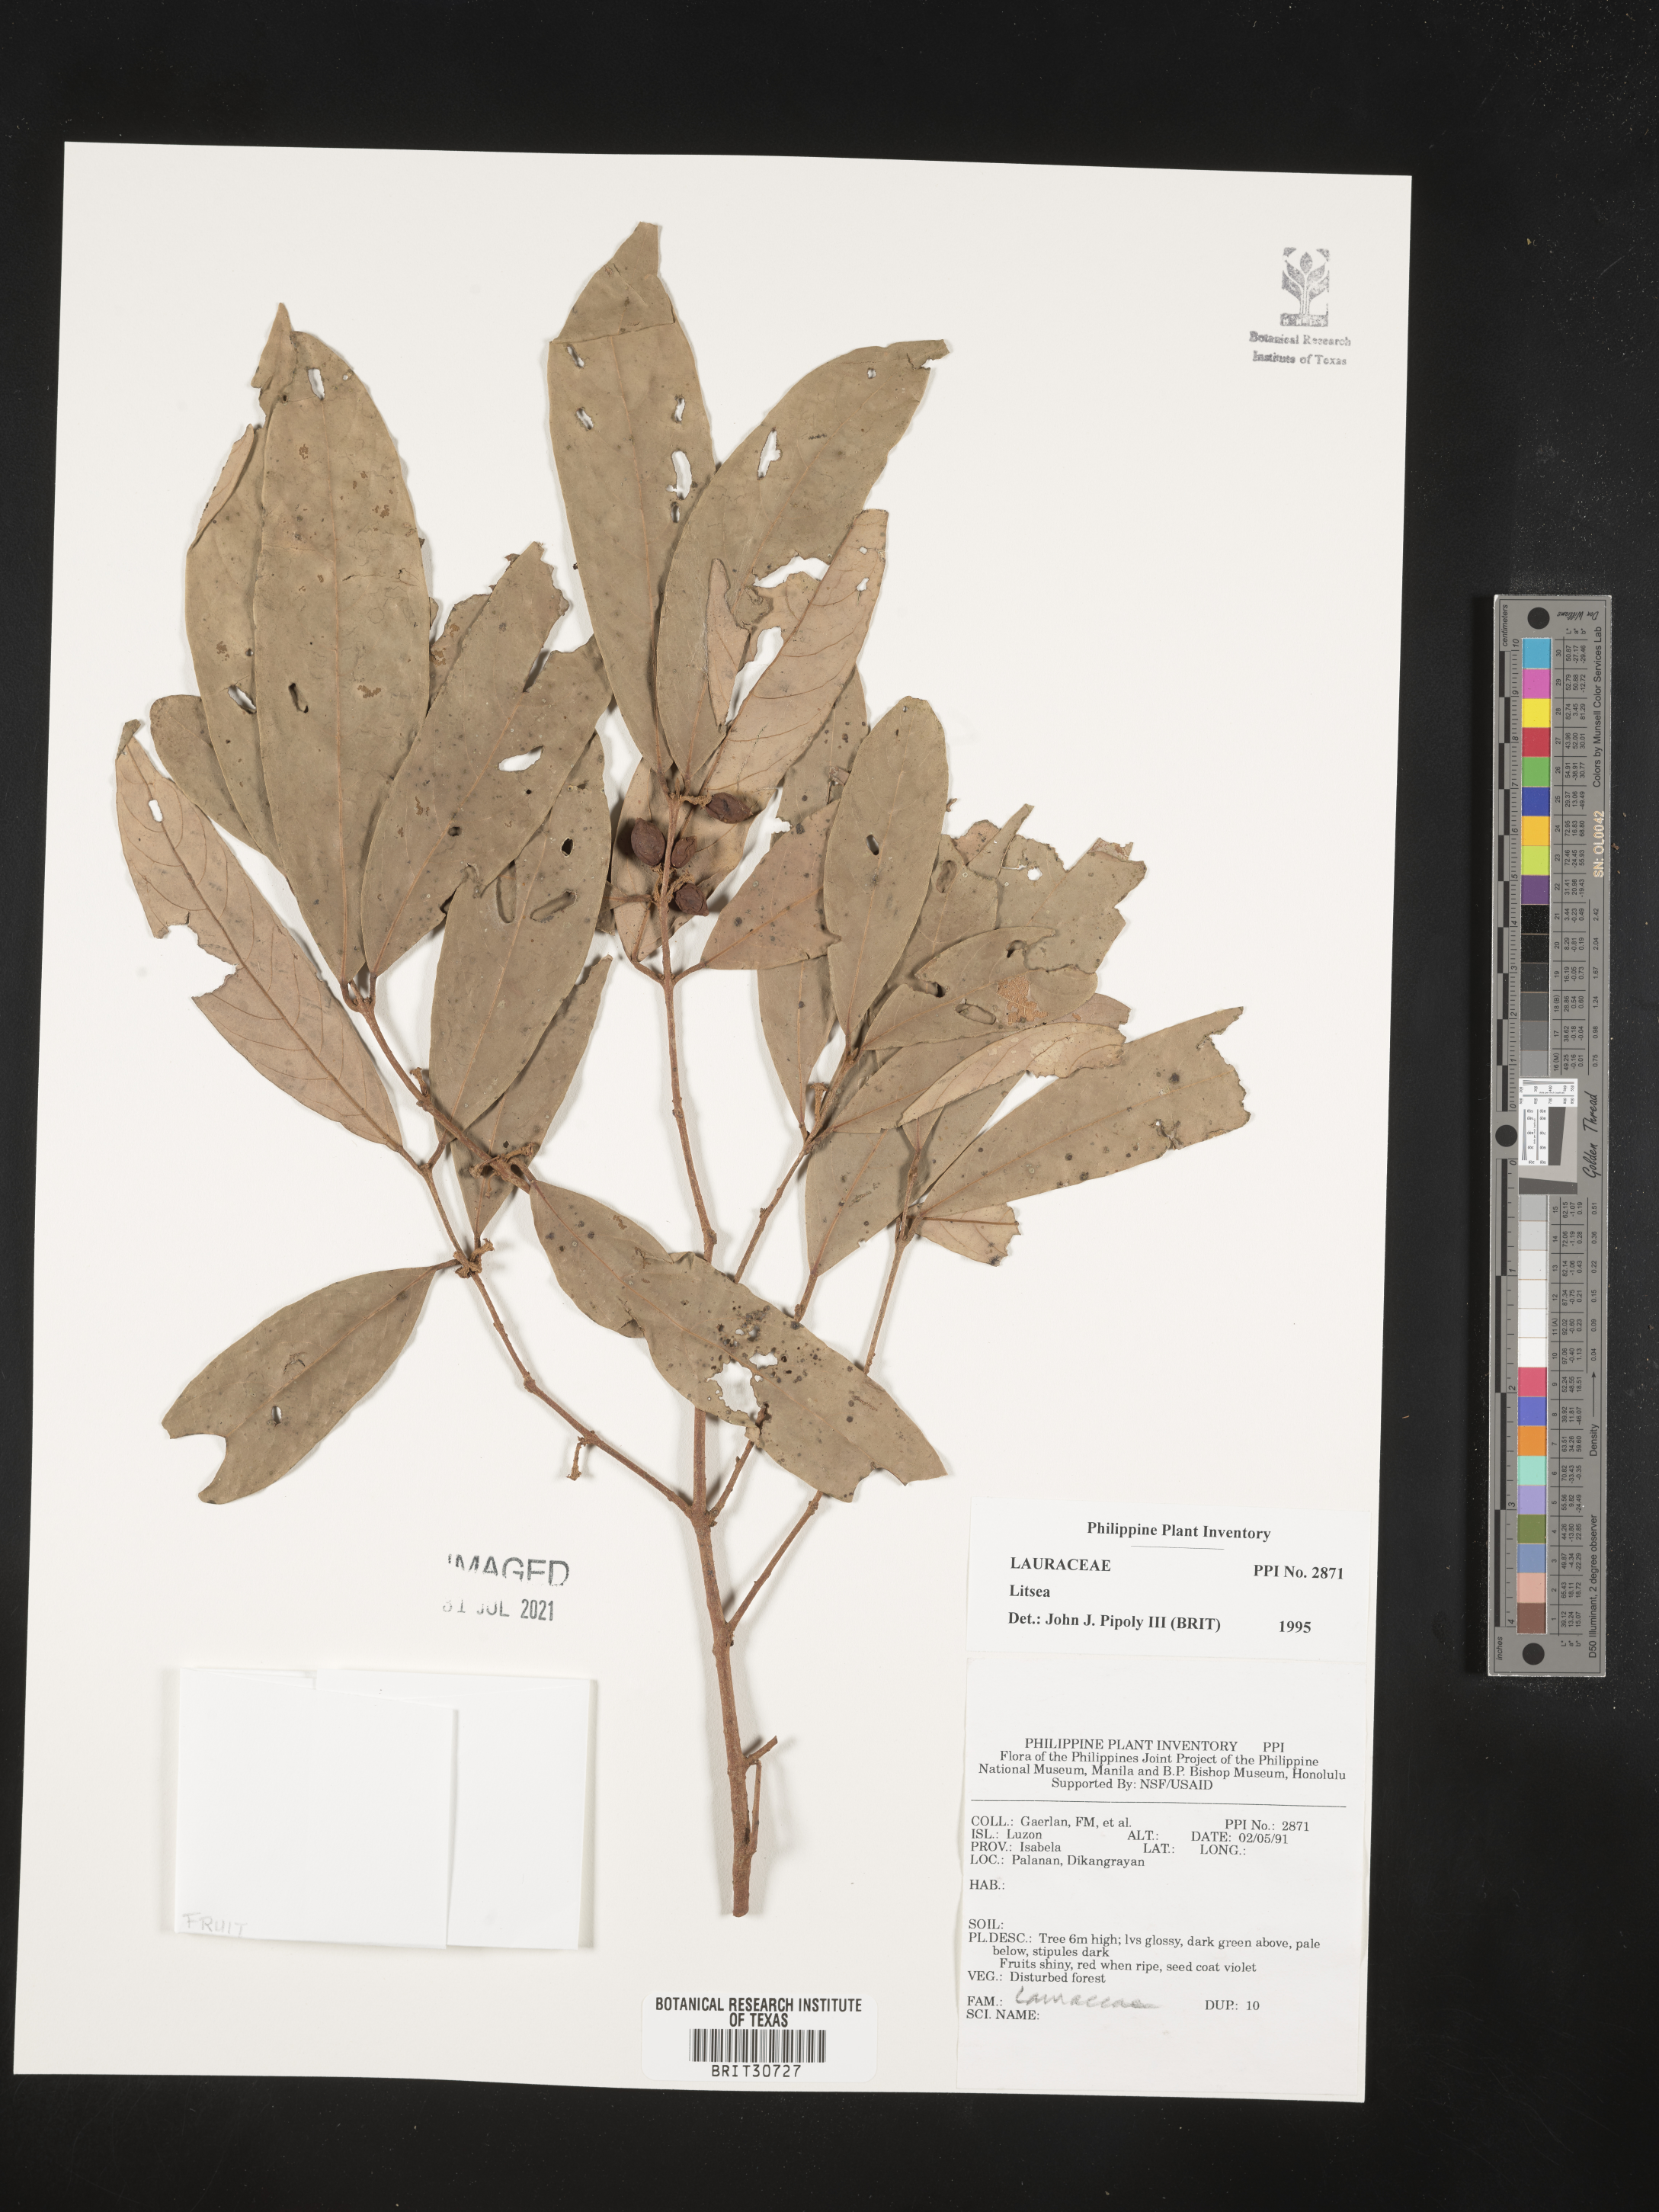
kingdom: Plantae
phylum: Tracheophyta
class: Magnoliopsida
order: Laurales
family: Lauraceae
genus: Litsea
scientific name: Litsea
